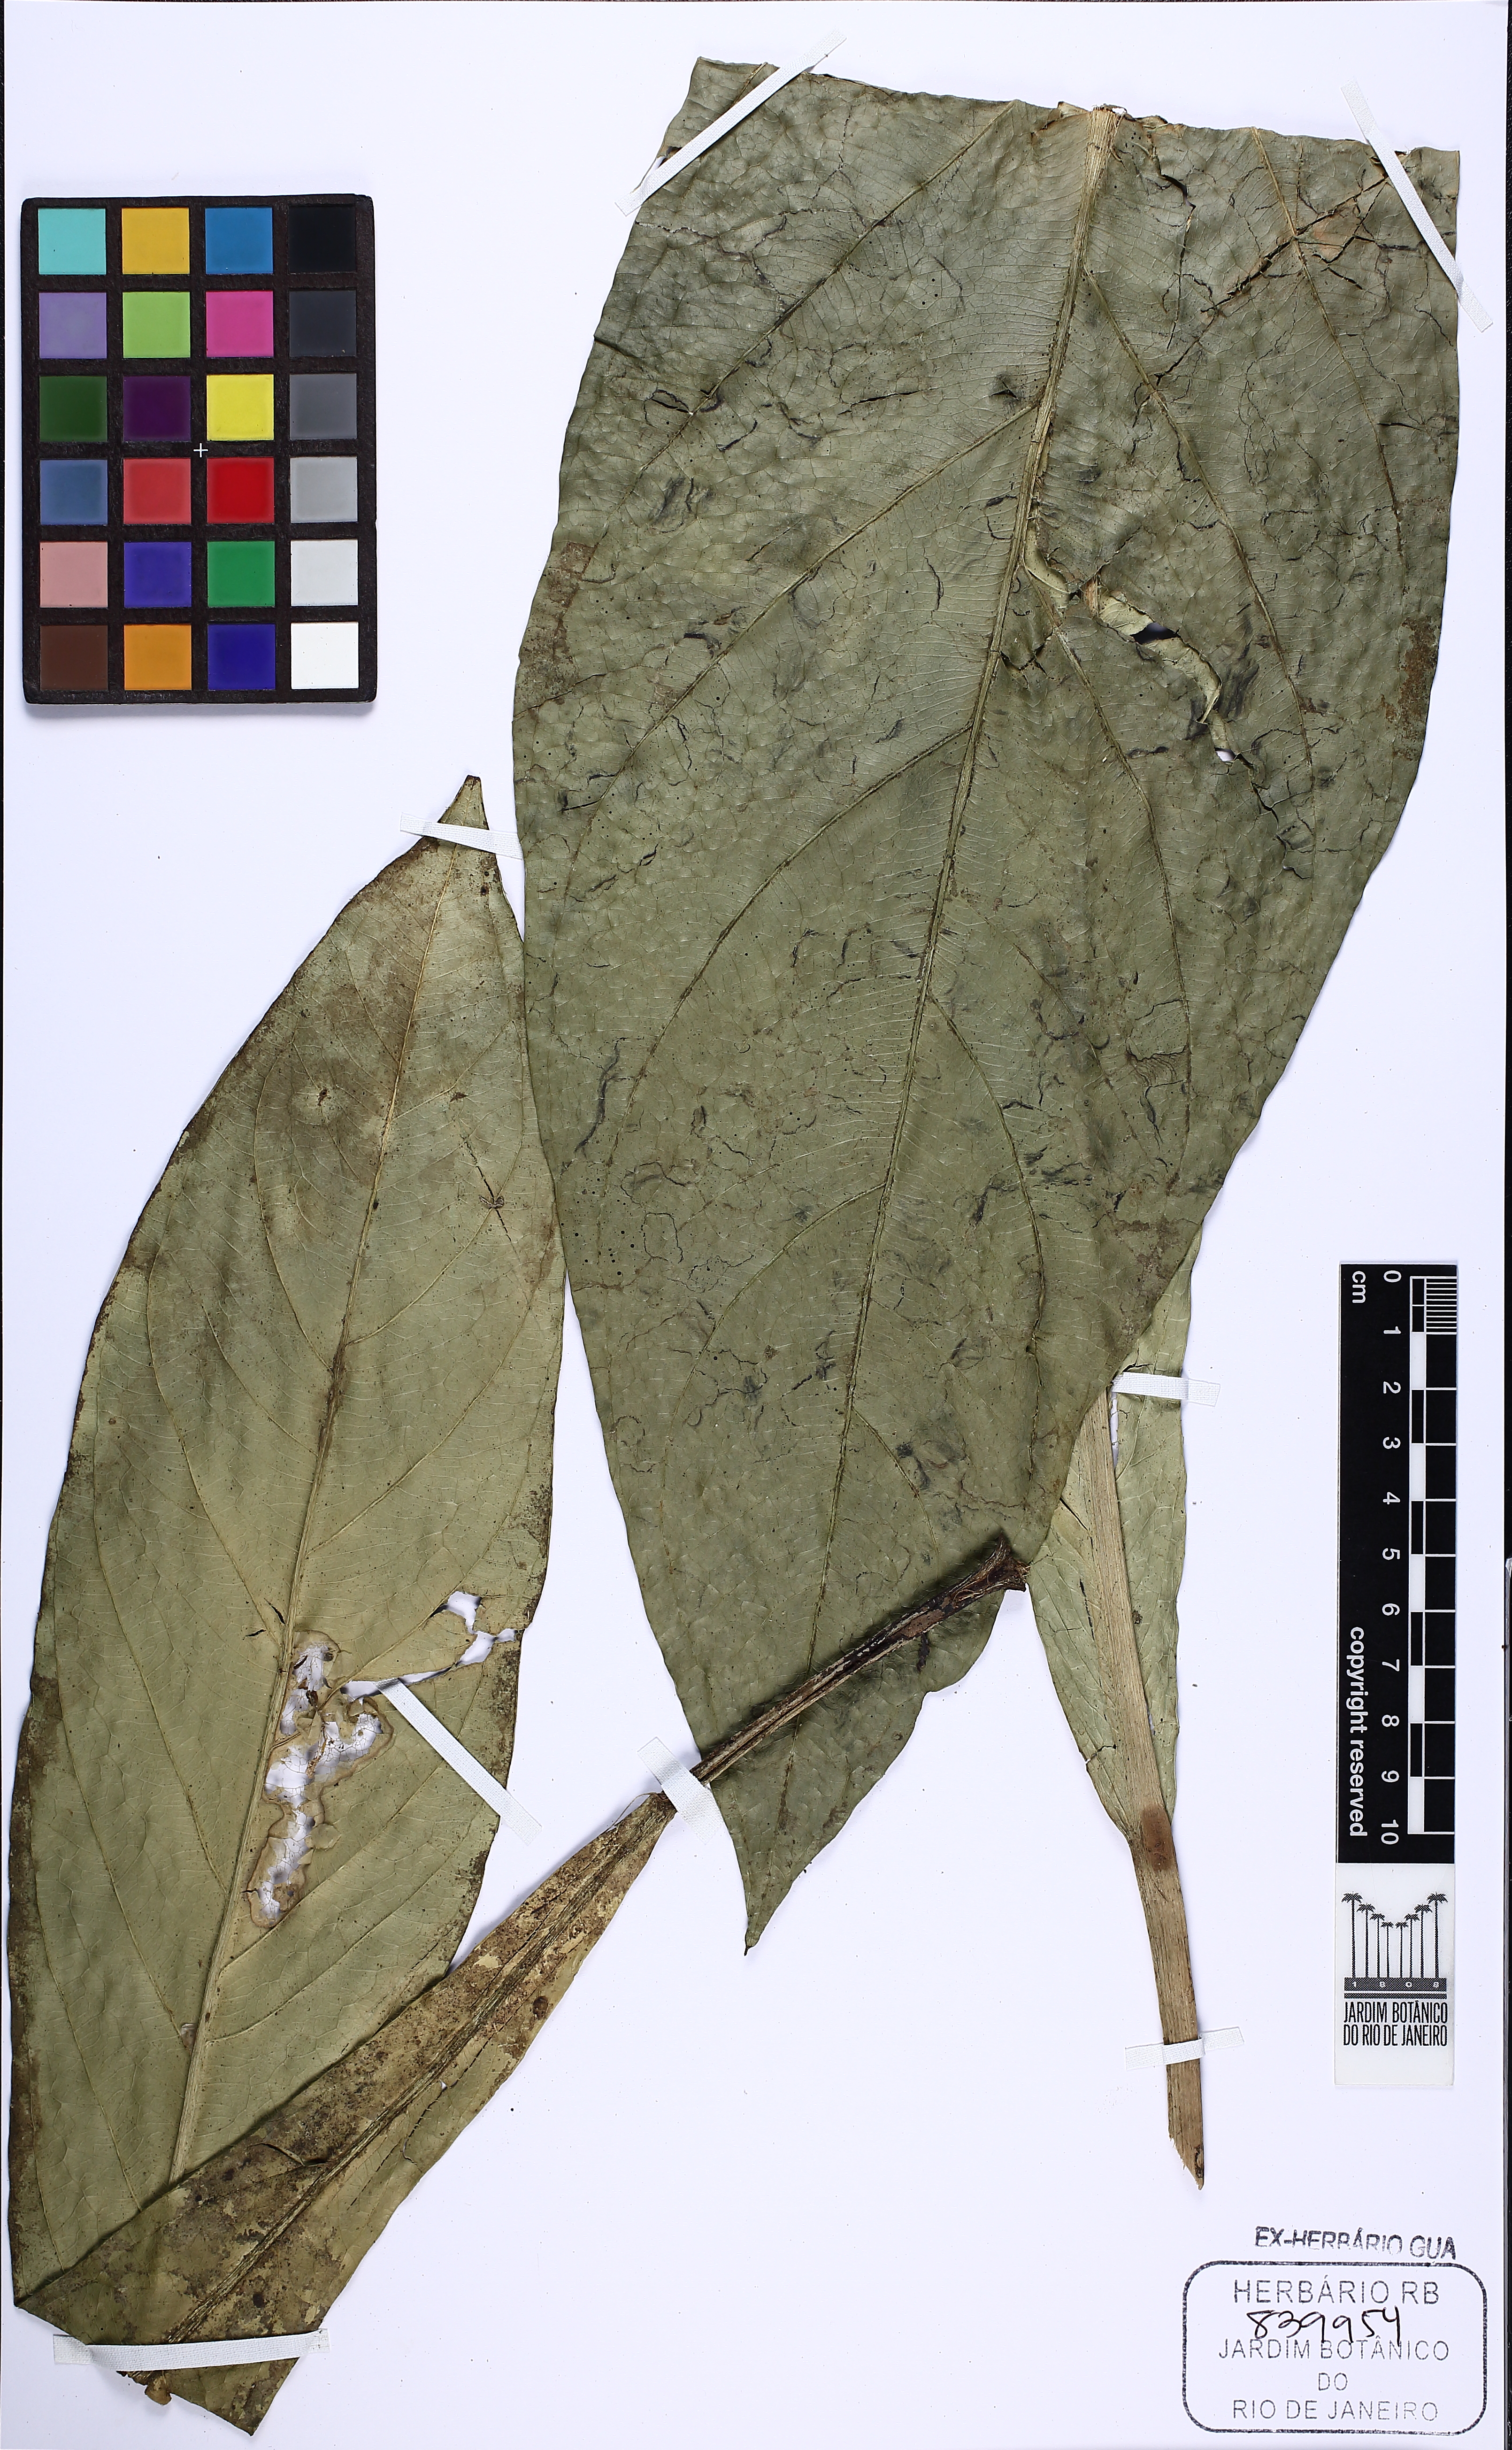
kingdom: Plantae
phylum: Tracheophyta
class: Liliopsida
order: Alismatales
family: Araceae
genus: Anthurium
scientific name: Anthurium bonplandii
